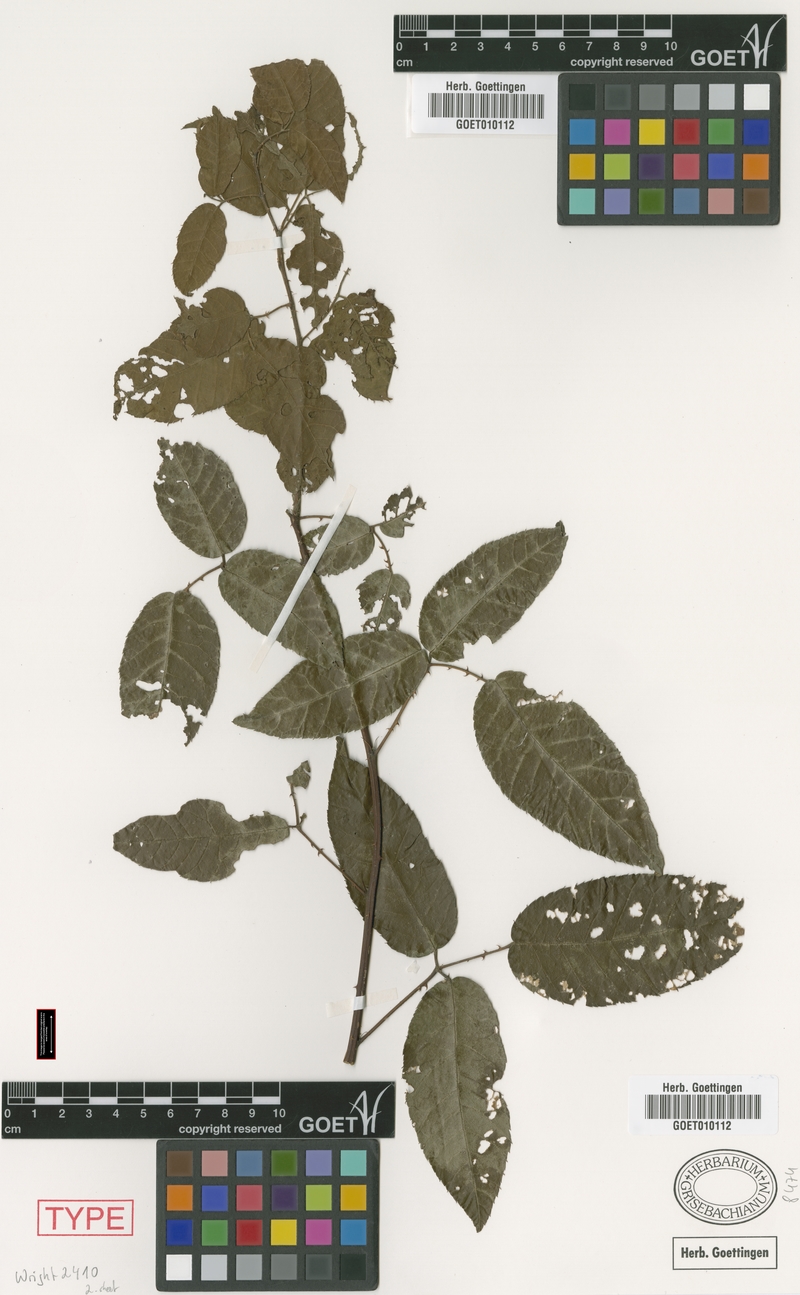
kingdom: Plantae
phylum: Tracheophyta
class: Magnoliopsida
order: Rosales
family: Rosaceae
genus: Rubus
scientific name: Rubus durus
